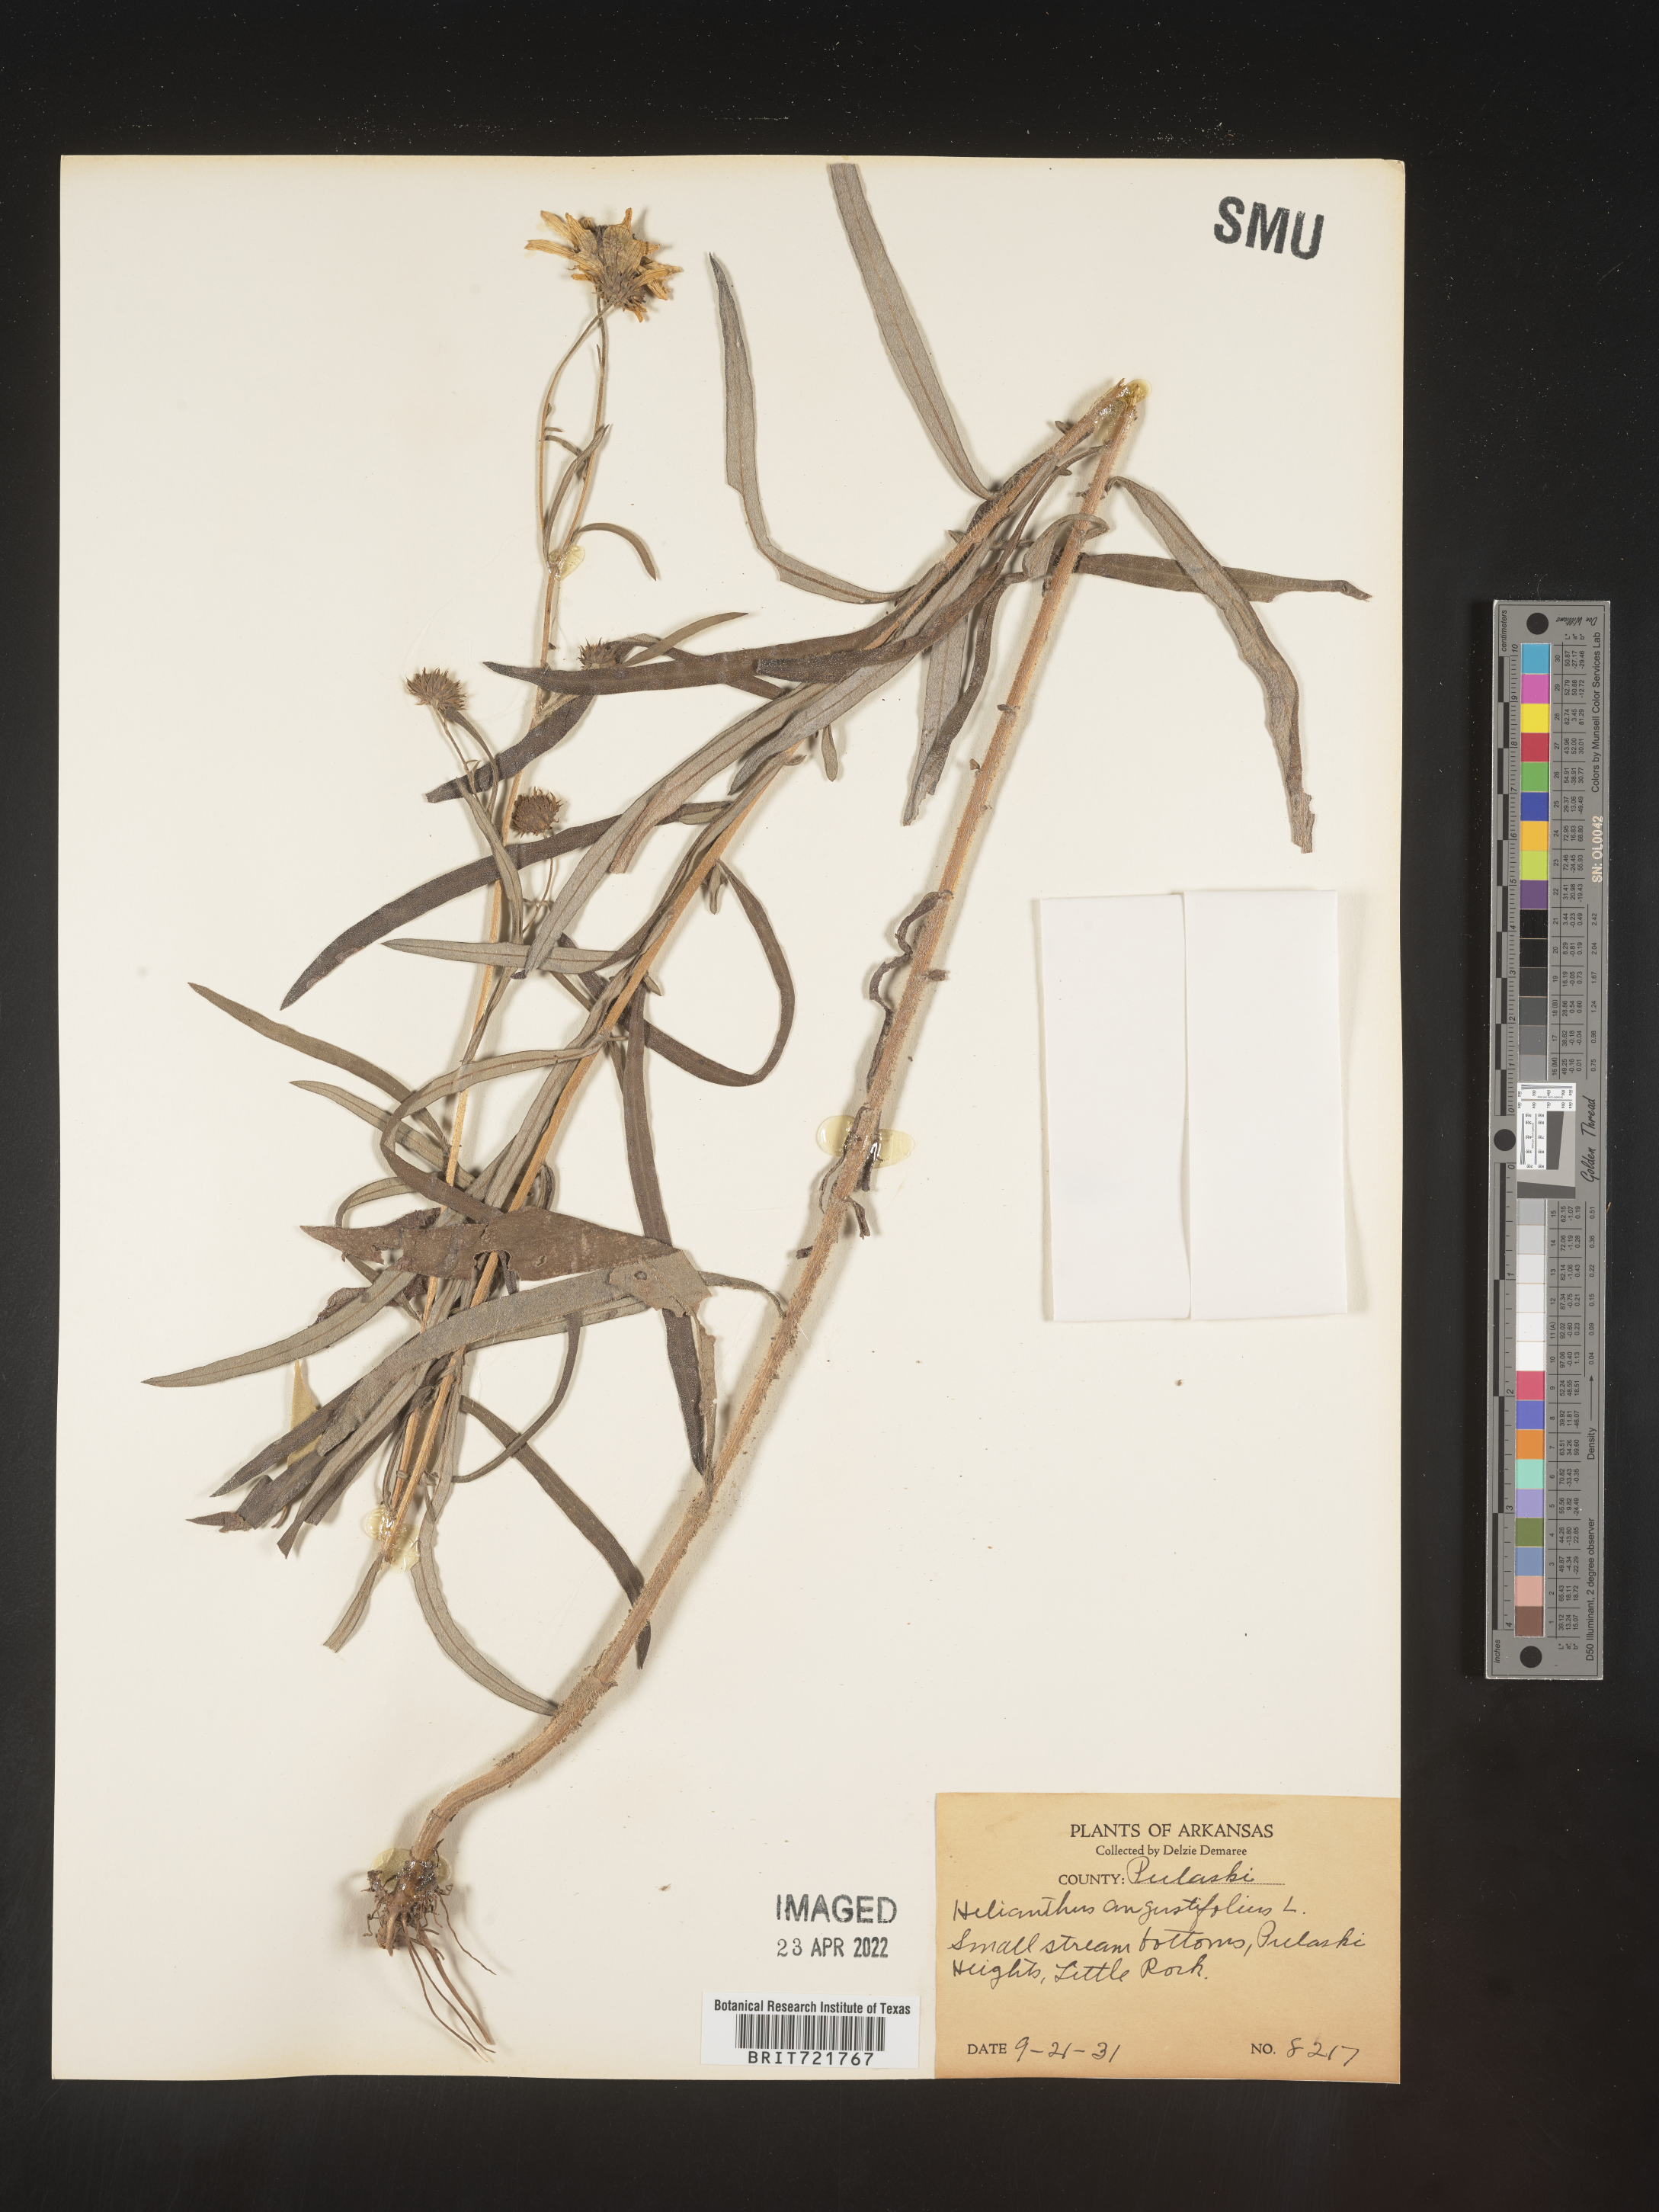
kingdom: Plantae
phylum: Tracheophyta
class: Magnoliopsida
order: Asterales
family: Asteraceae
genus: Helianthus
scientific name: Helianthus angustifolius
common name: Swamp sunflower
